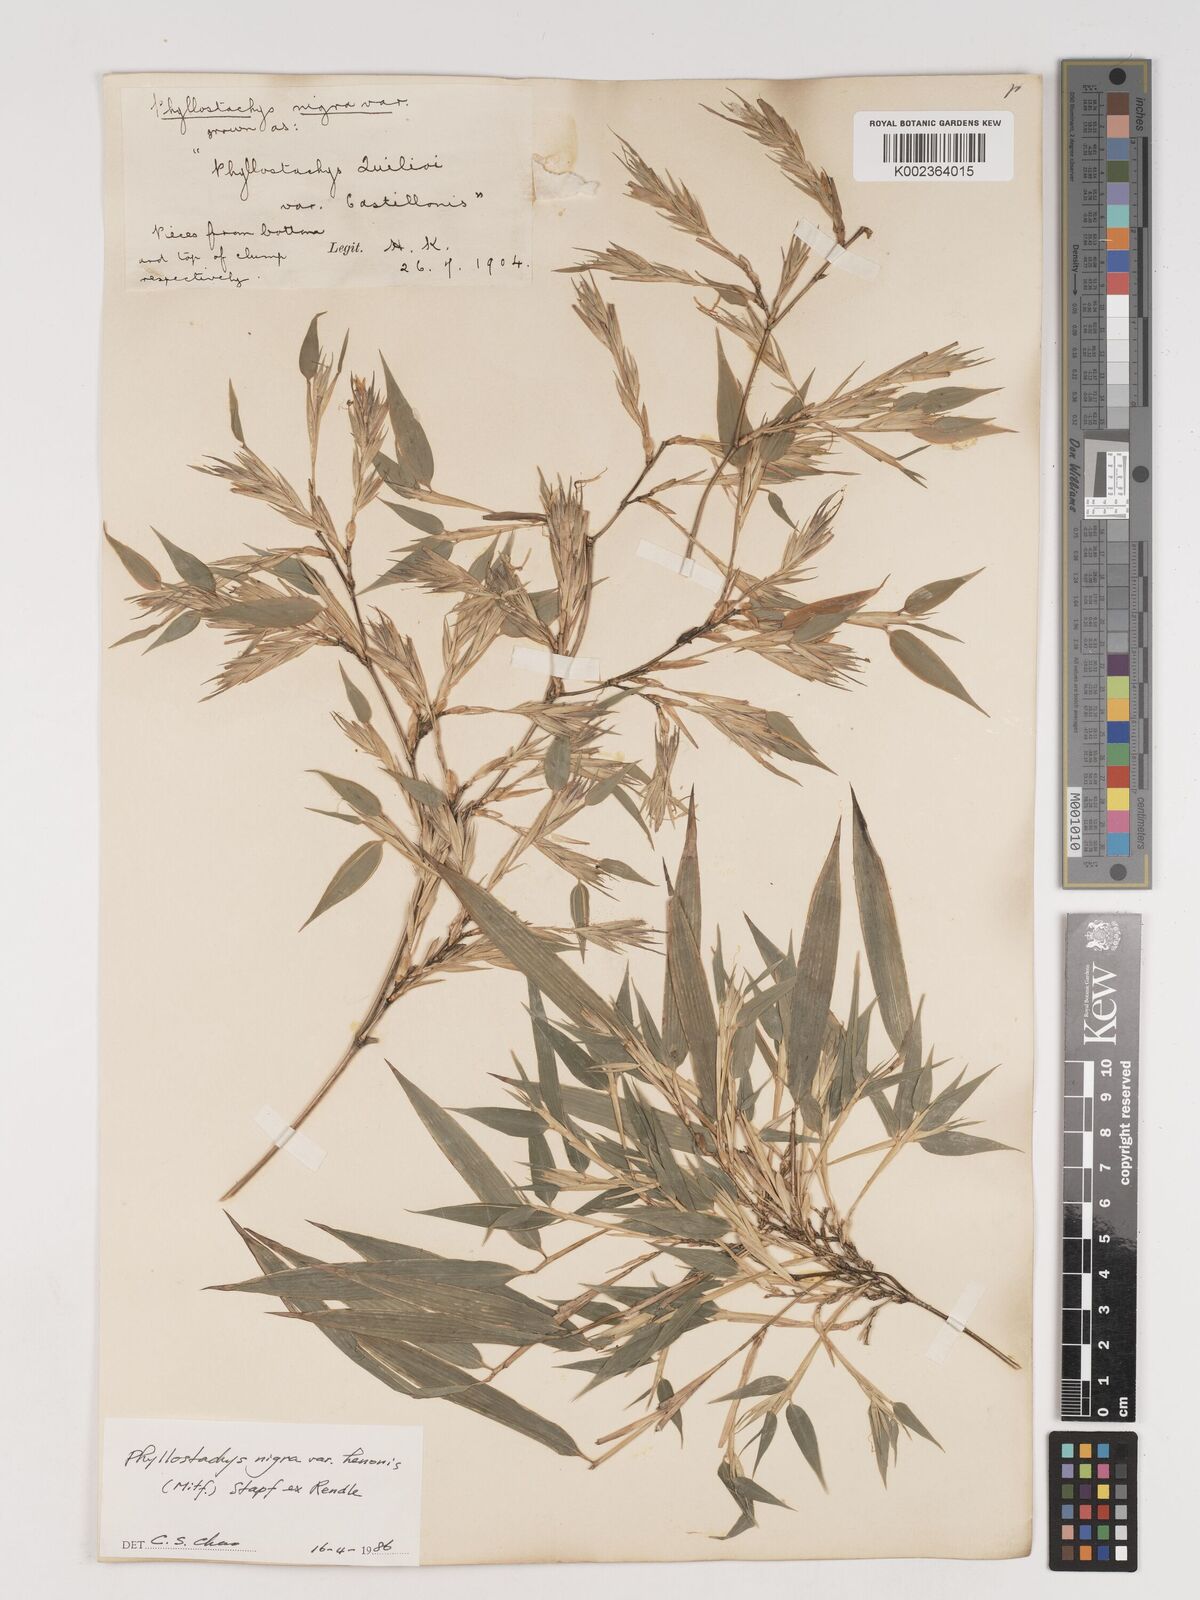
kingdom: Plantae
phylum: Tracheophyta
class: Liliopsida
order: Poales
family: Poaceae
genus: Phyllostachys
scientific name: Phyllostachys nigra
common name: Black bamboo
